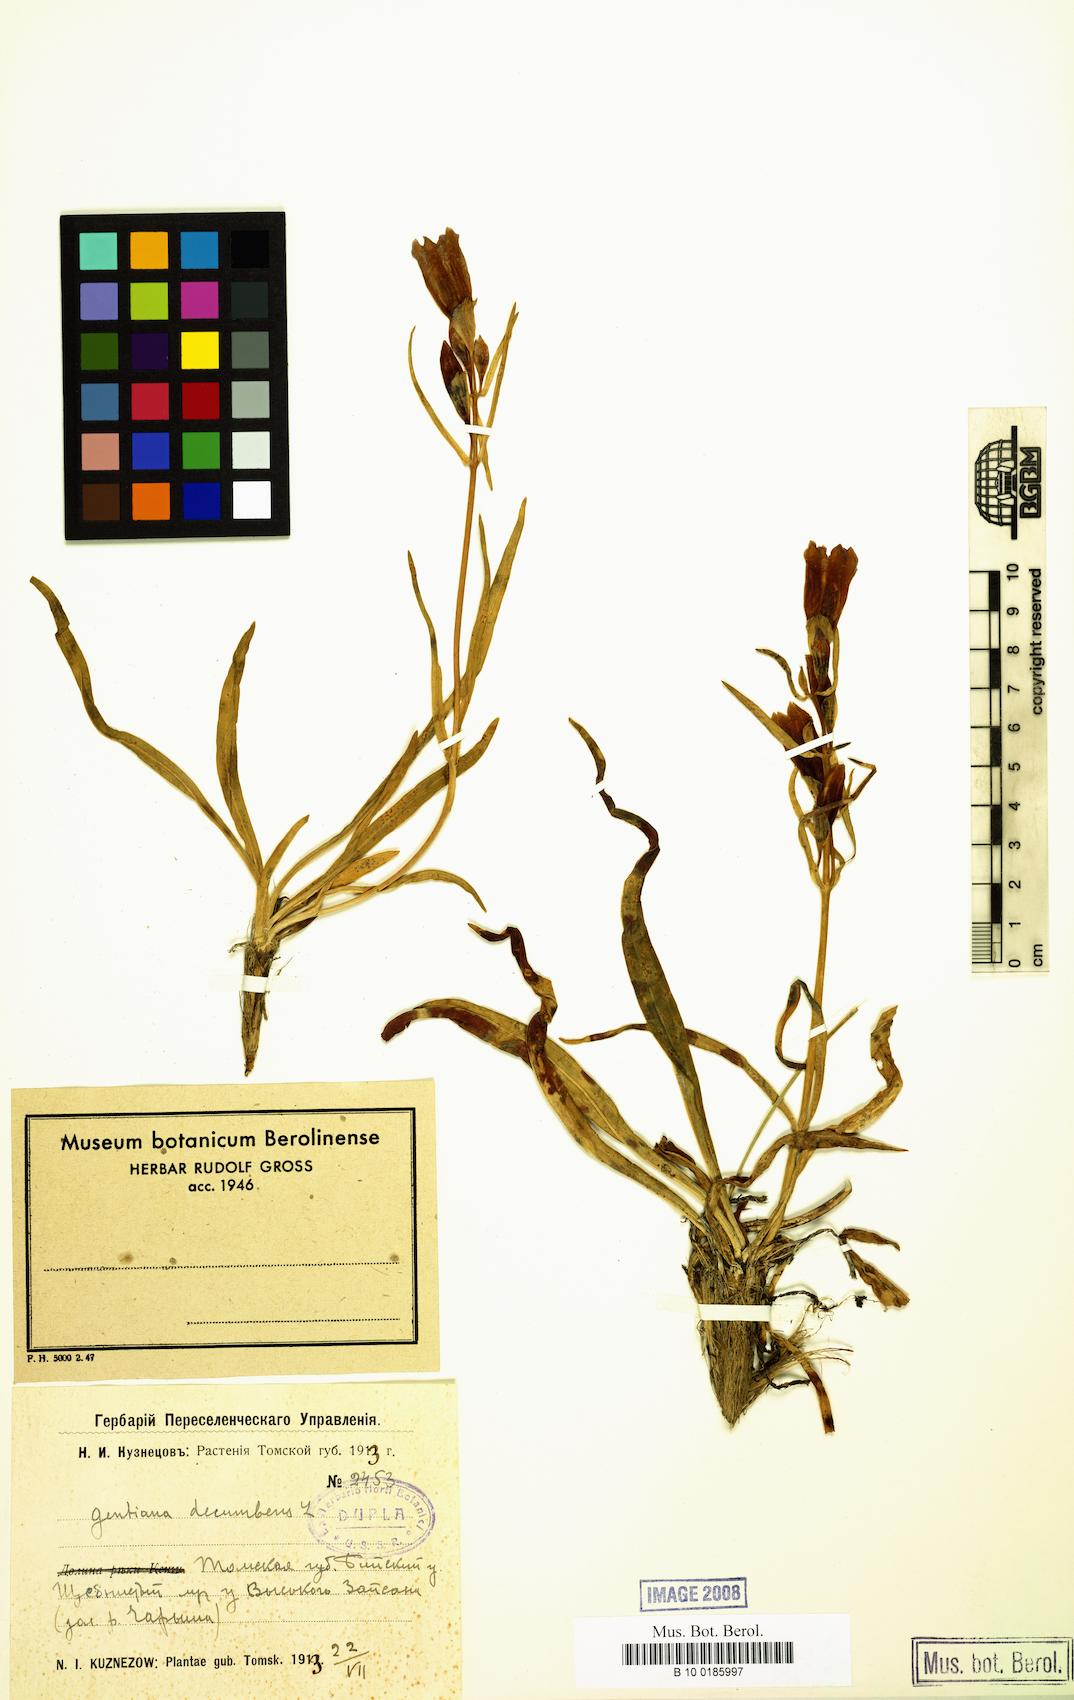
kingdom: Plantae
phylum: Tracheophyta
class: Magnoliopsida
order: Gentianales
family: Gentianaceae
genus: Gentiana
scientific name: Gentiana decumbens
